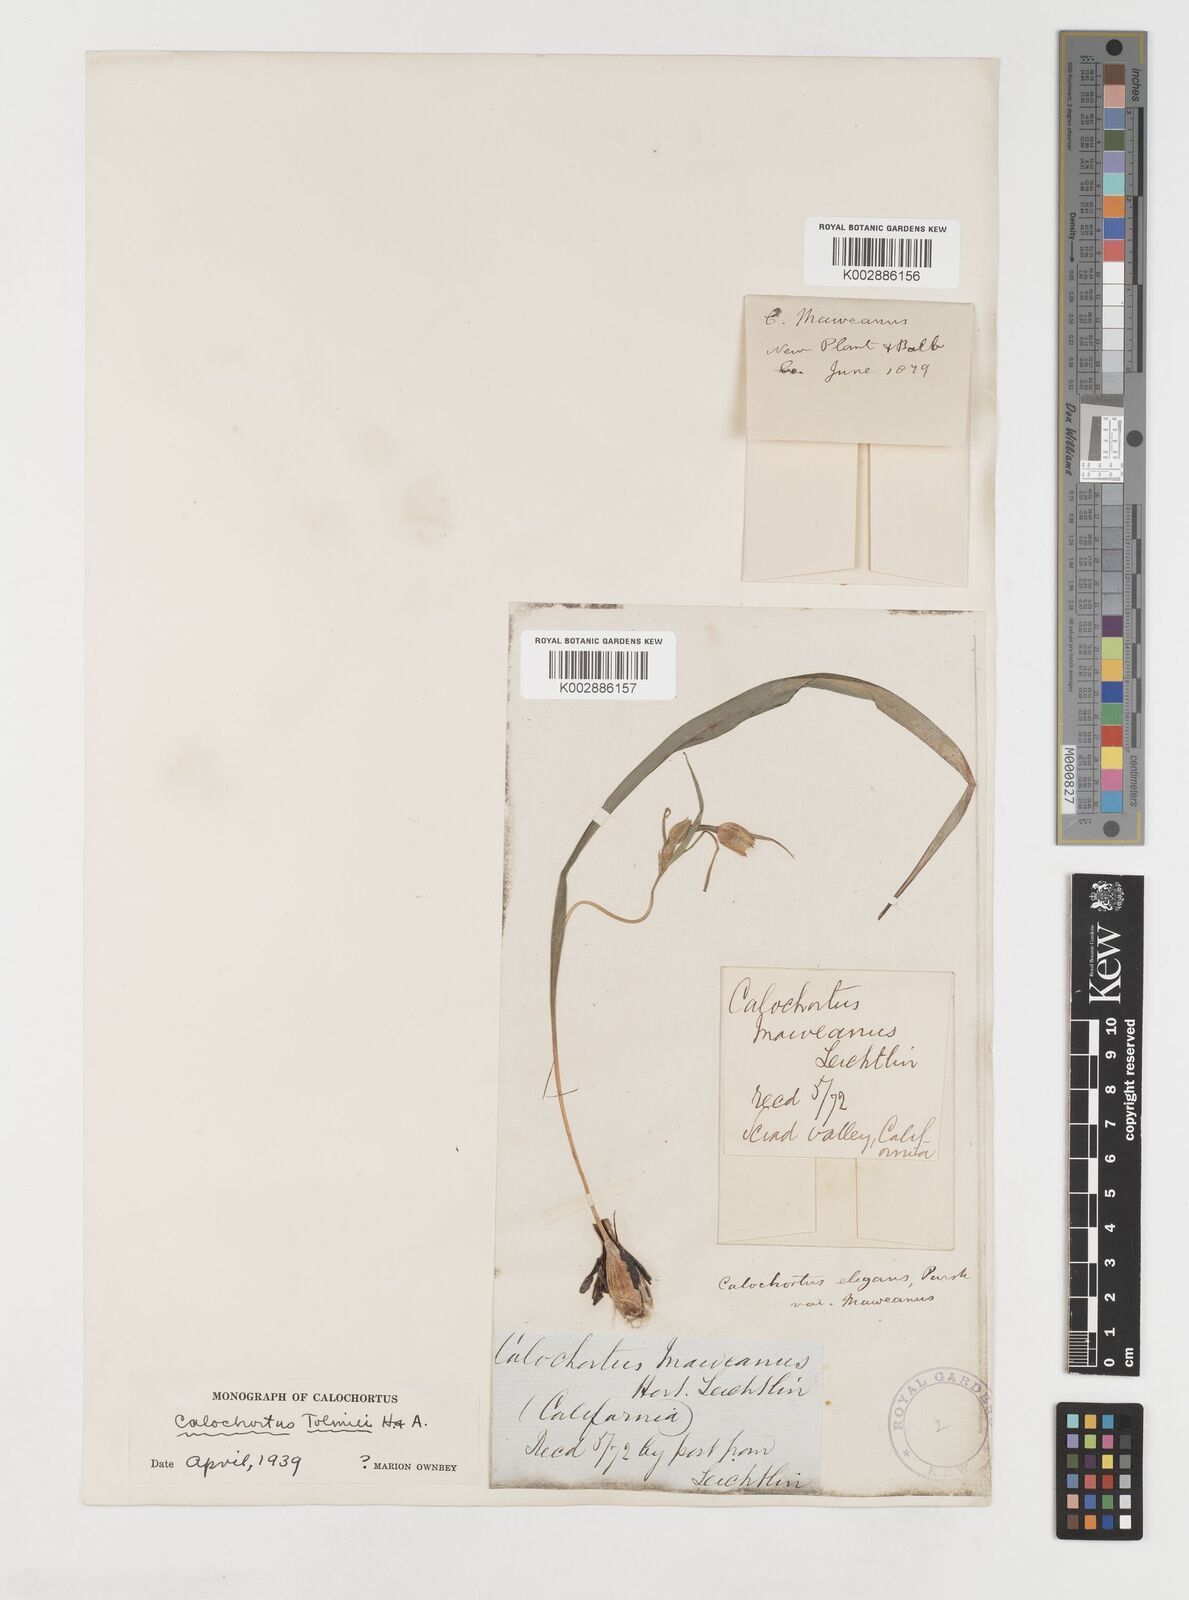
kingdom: Plantae
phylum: Tracheophyta
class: Liliopsida
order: Liliales
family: Liliaceae
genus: Calochortus
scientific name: Calochortus tolmiei
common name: Pussy-ears
